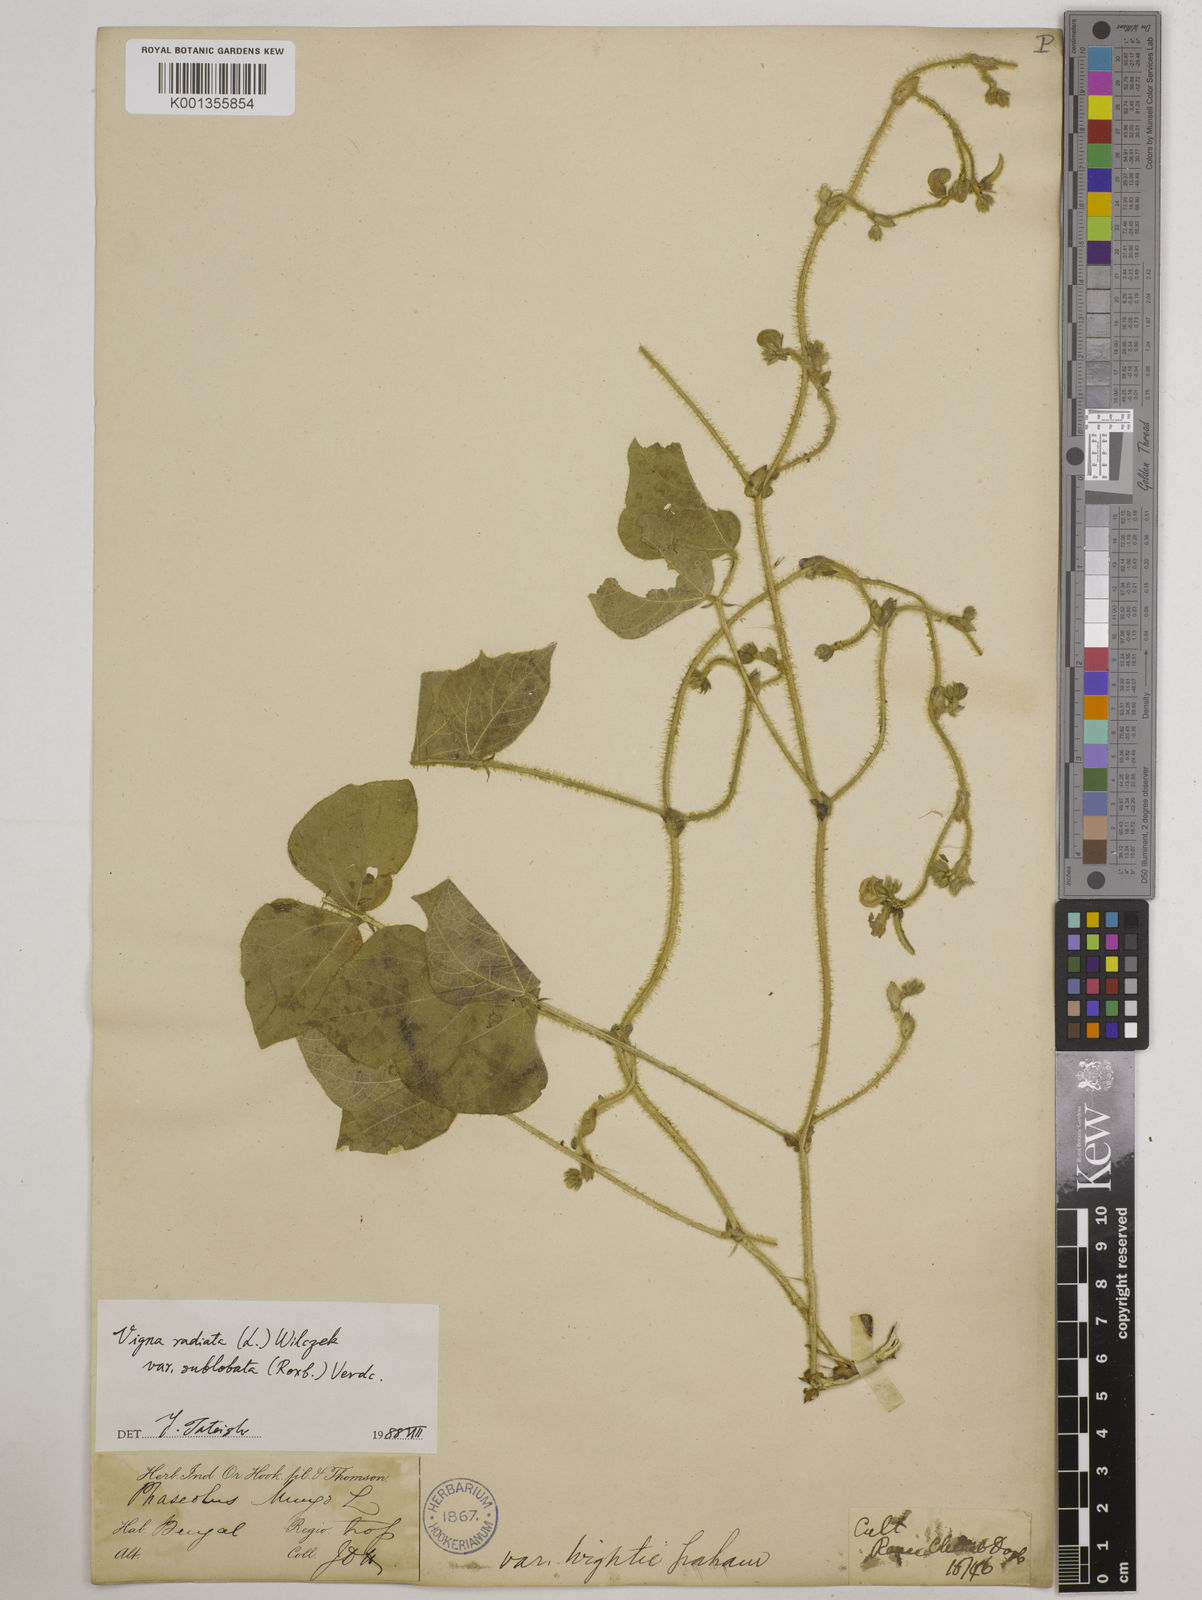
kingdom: Plantae
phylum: Tracheophyta
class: Magnoliopsida
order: Fabales
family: Fabaceae
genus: Vigna
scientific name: Vigna radiata
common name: Mung-bean
